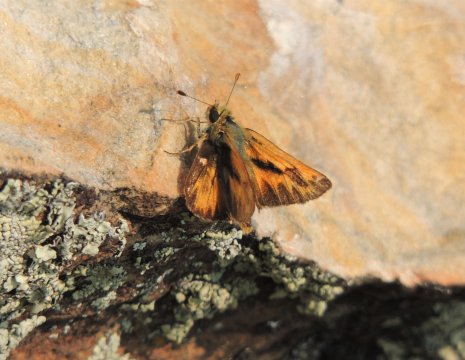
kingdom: Animalia
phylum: Arthropoda
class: Insecta
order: Lepidoptera
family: Hesperiidae
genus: Ochlodes
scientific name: Ochlodes sylvanoides
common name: Woodland Skipper
